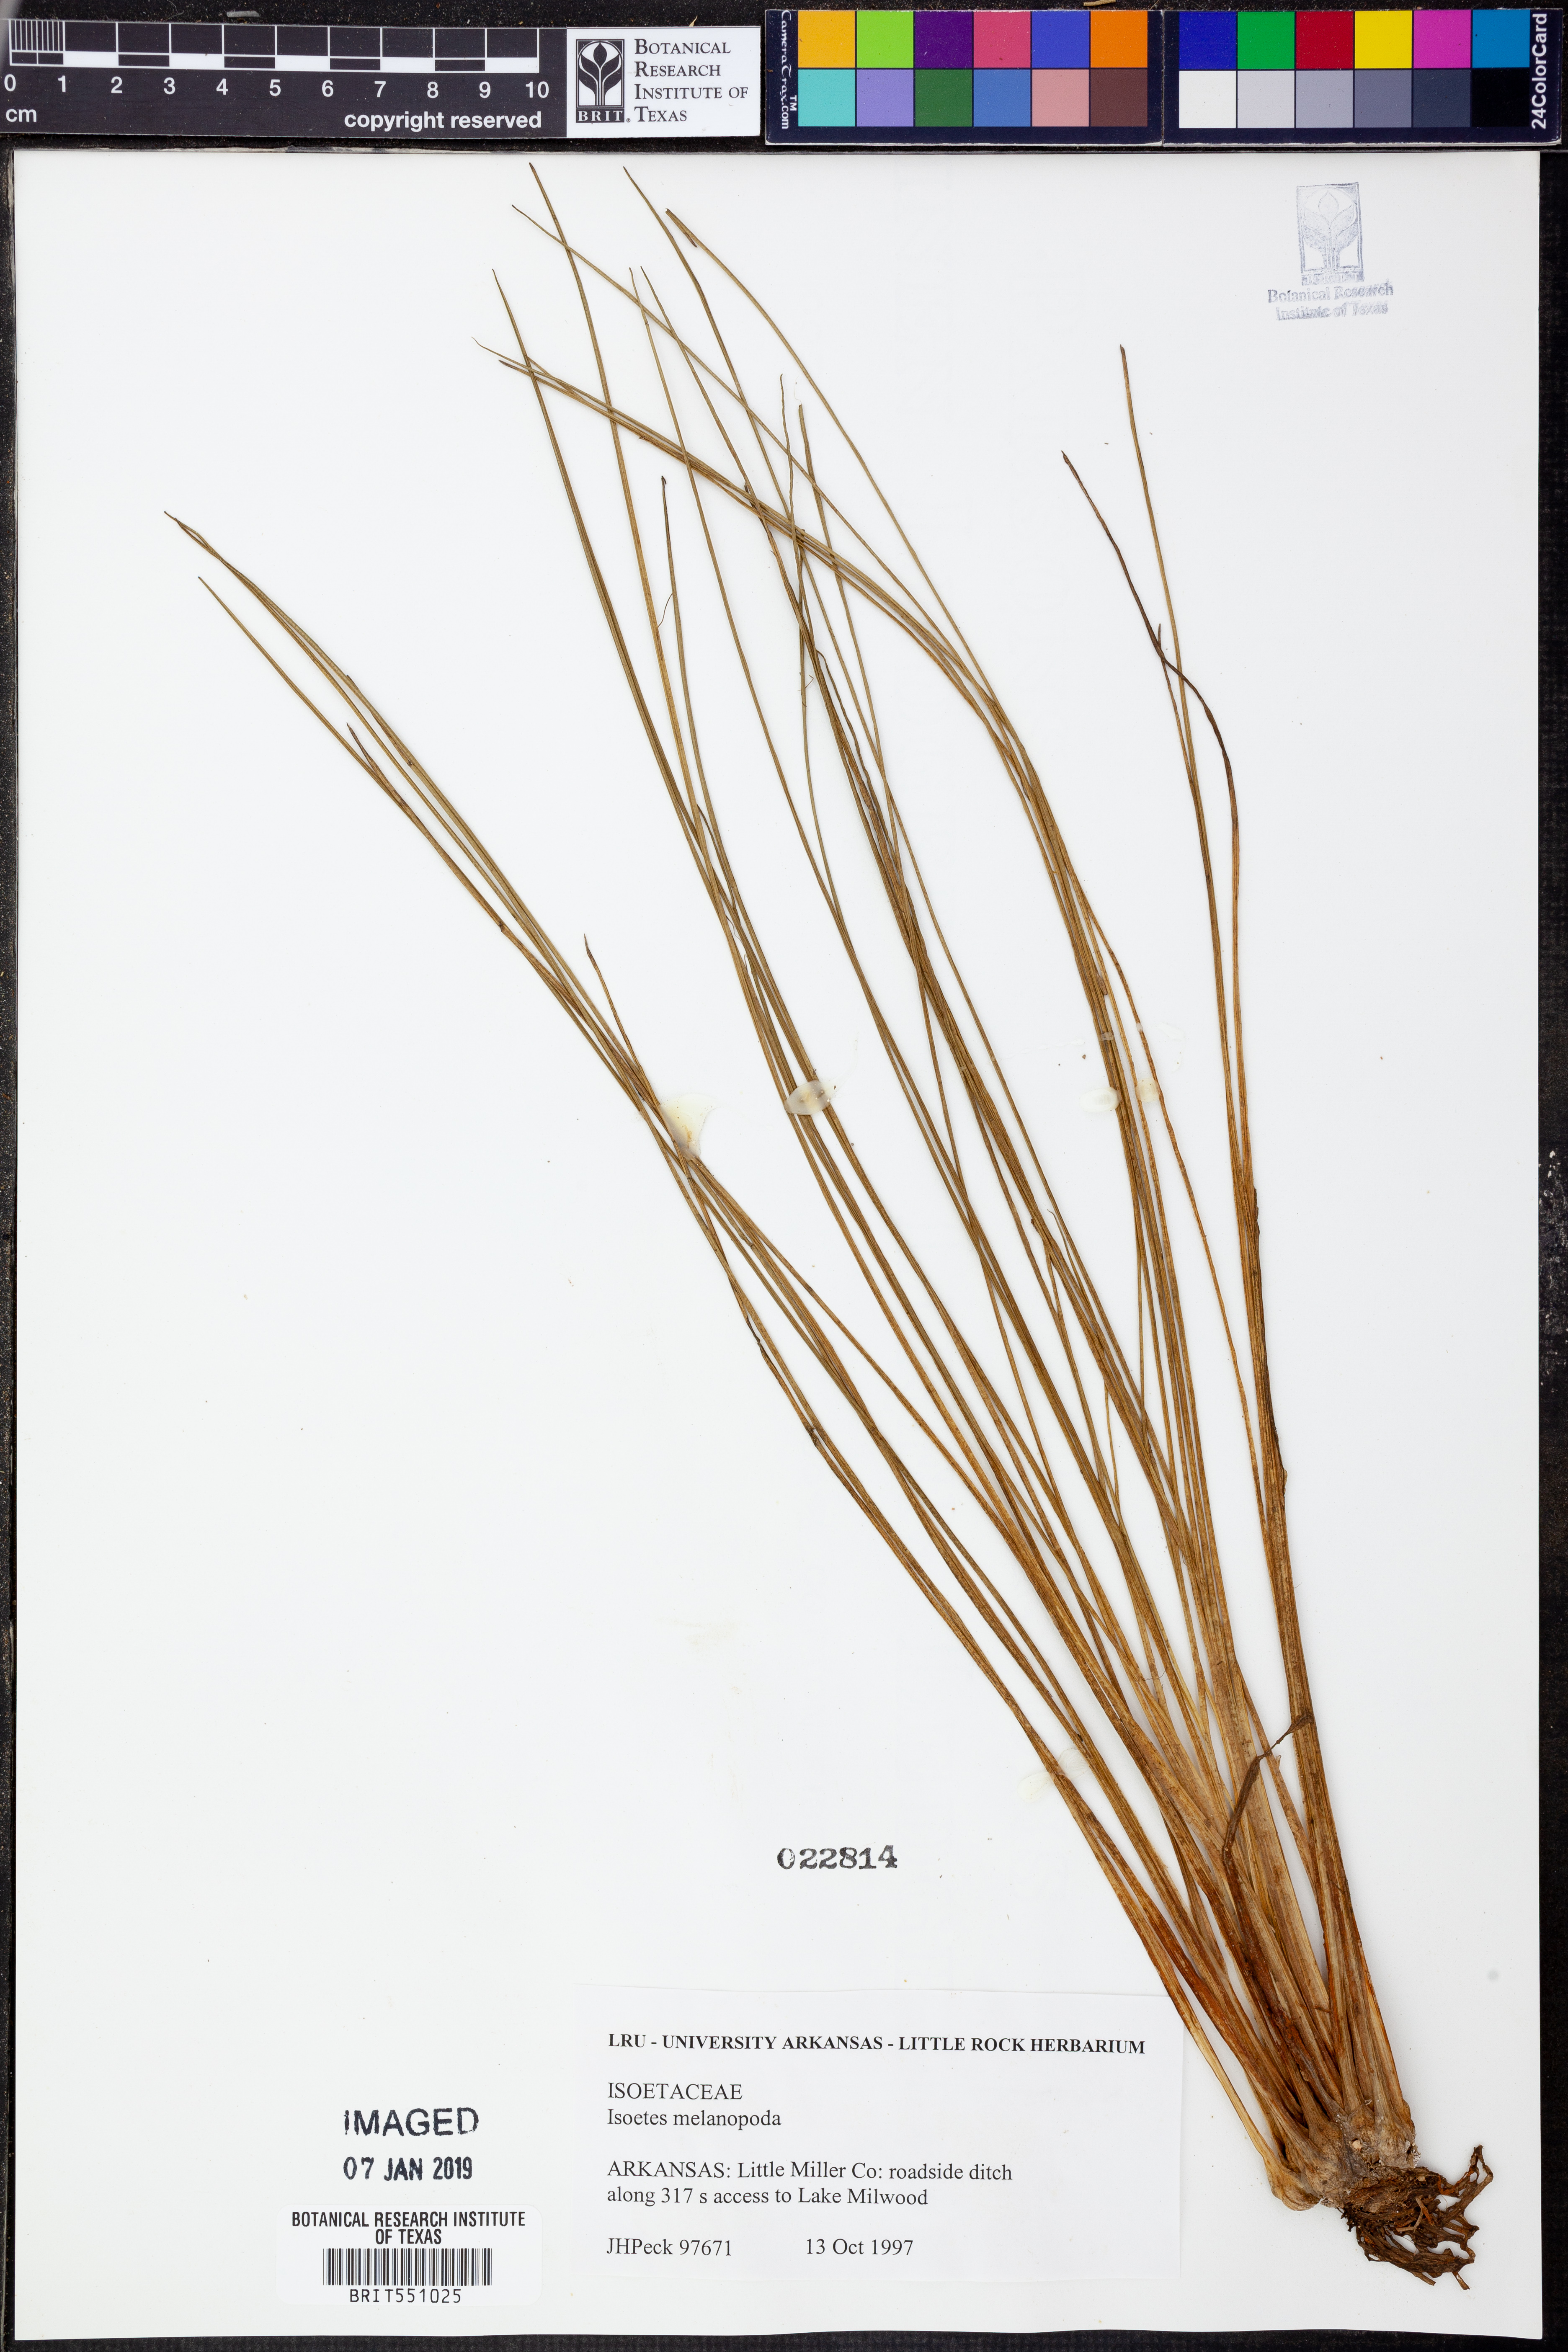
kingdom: Plantae
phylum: Tracheophyta
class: Lycopodiopsida
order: Isoetales
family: Isoetaceae
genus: Isoetes
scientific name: Isoetes melanopoda
